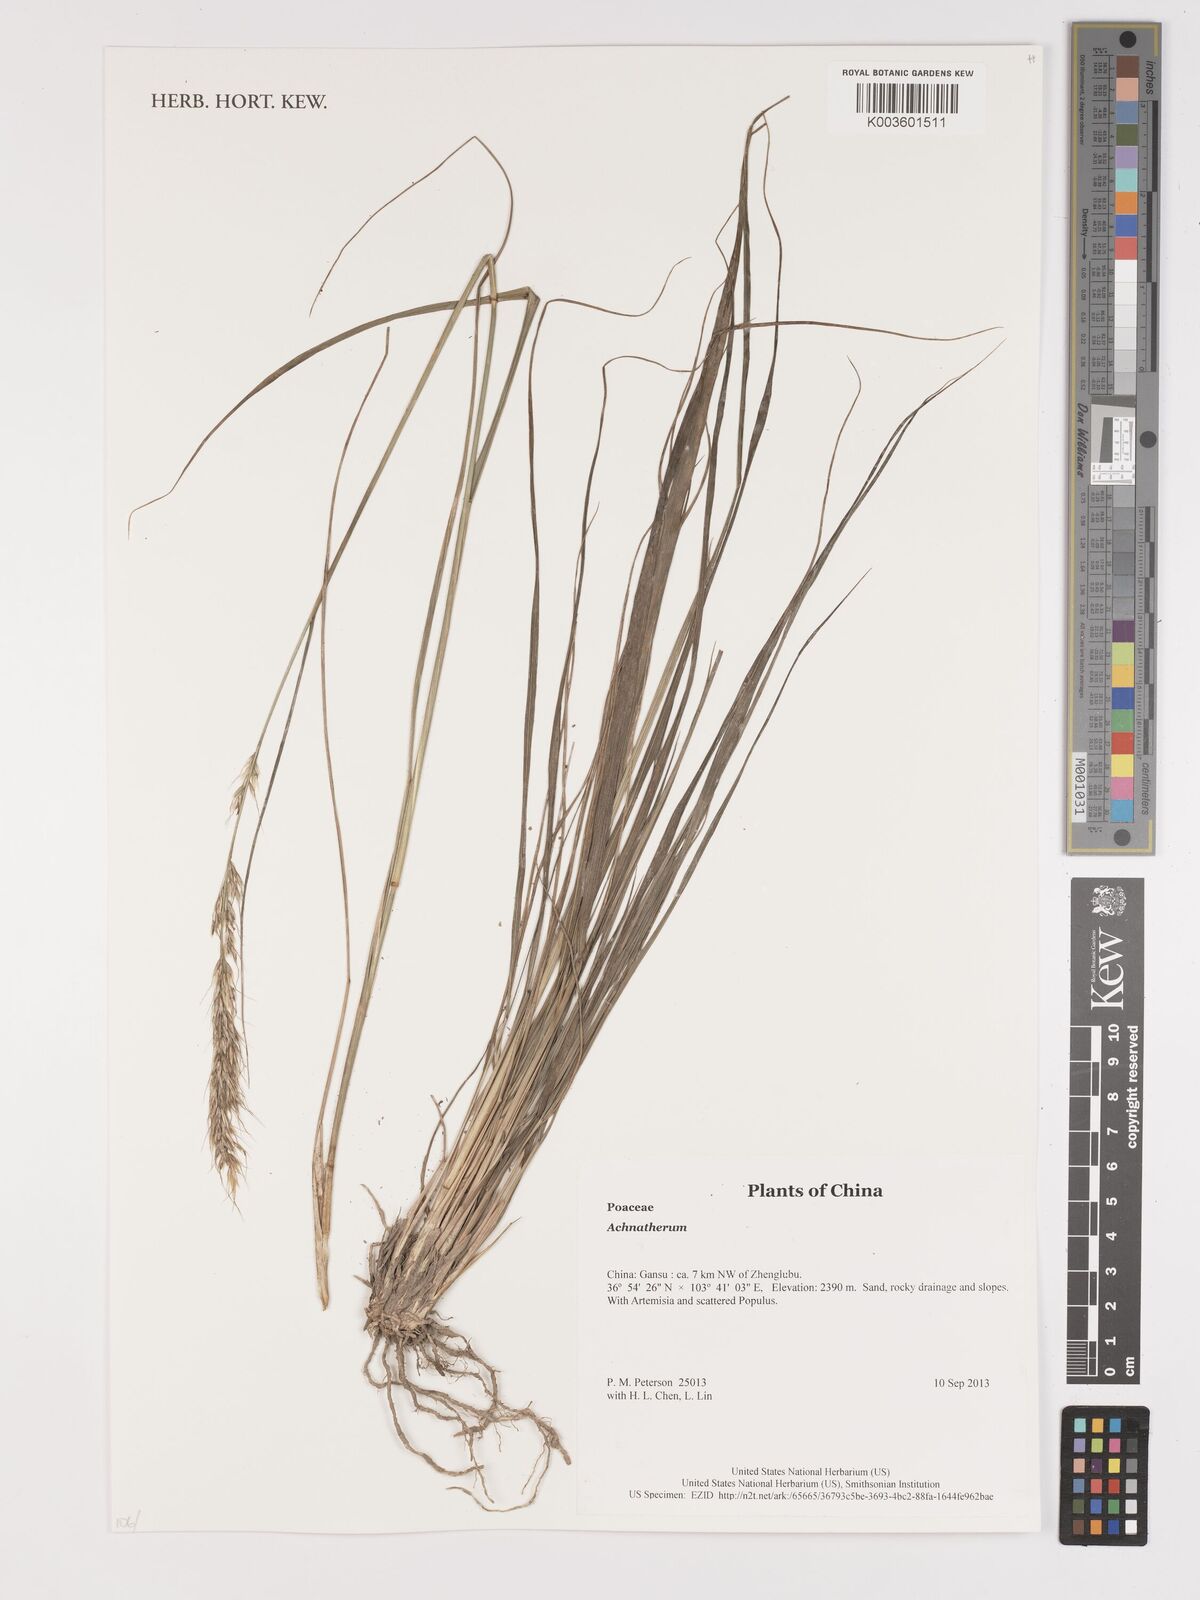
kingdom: Plantae
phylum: Tracheophyta
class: Liliopsida
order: Poales
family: Poaceae
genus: Stipa
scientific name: Stipa
